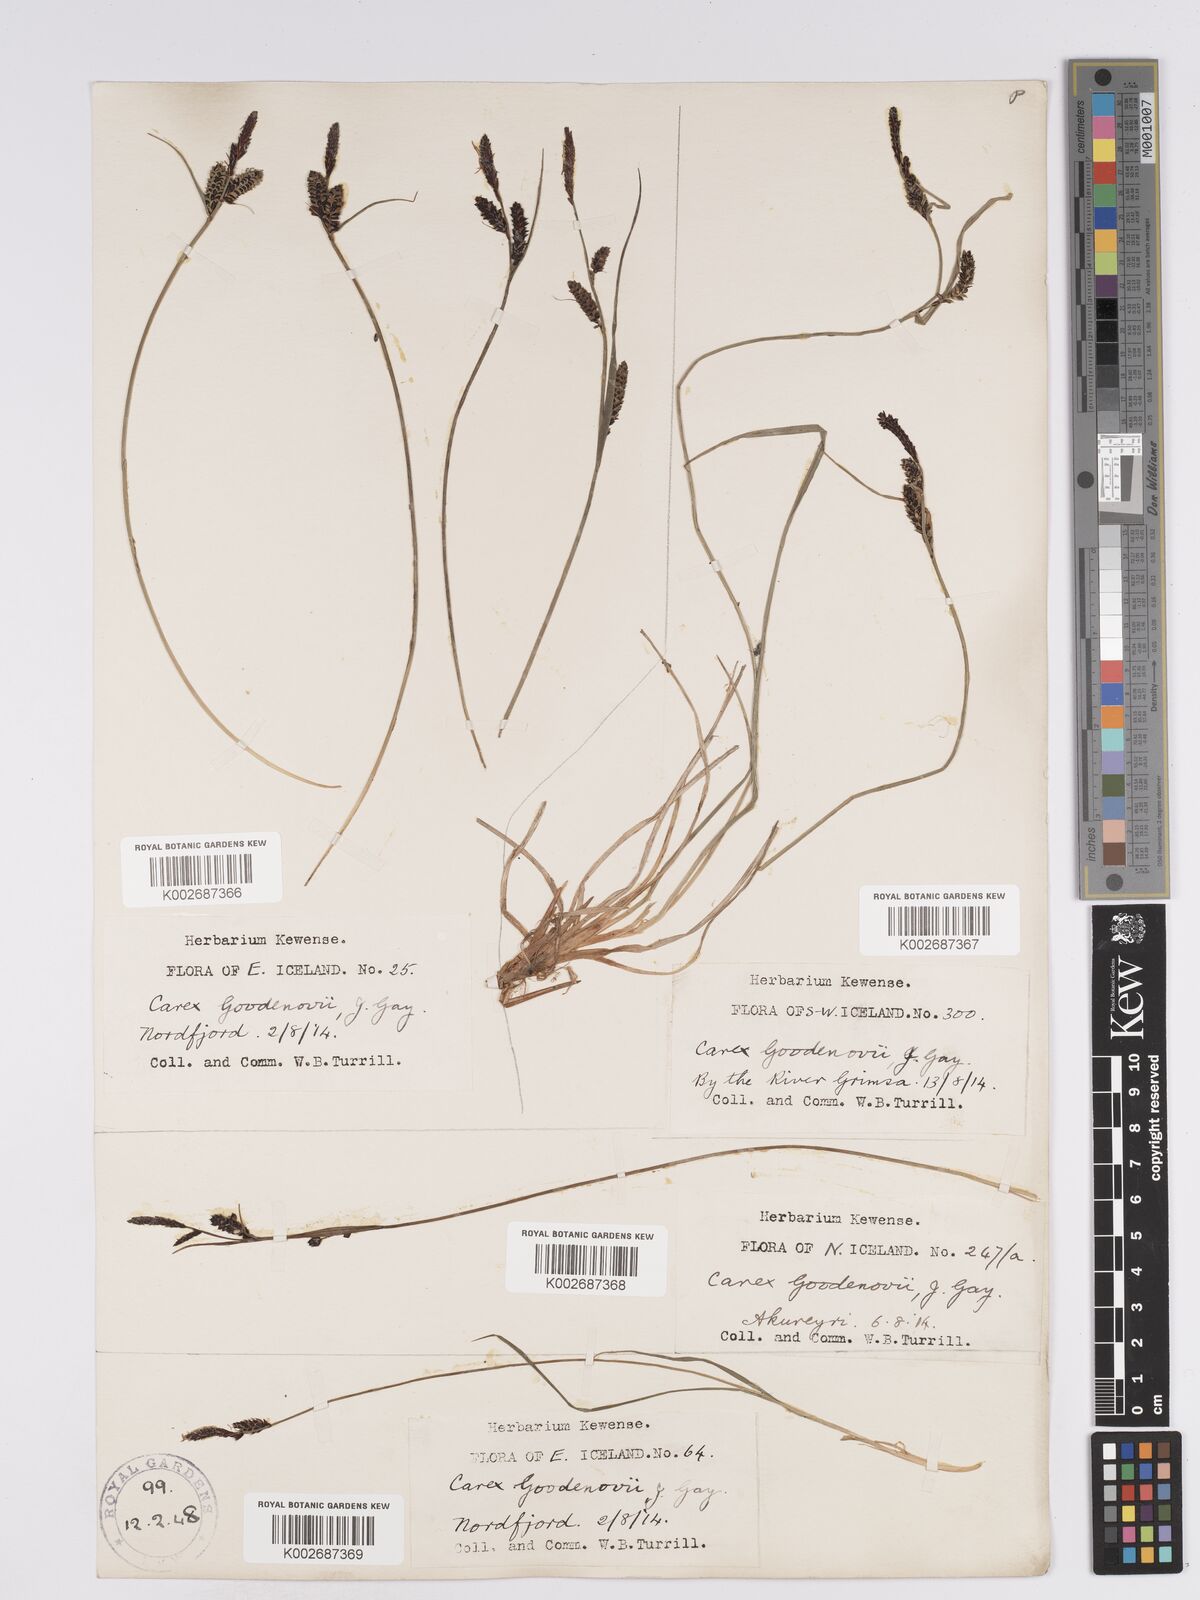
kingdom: Plantae
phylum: Tracheophyta
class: Liliopsida
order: Poales
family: Cyperaceae
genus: Carex
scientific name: Carex nigra
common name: Common sedge
